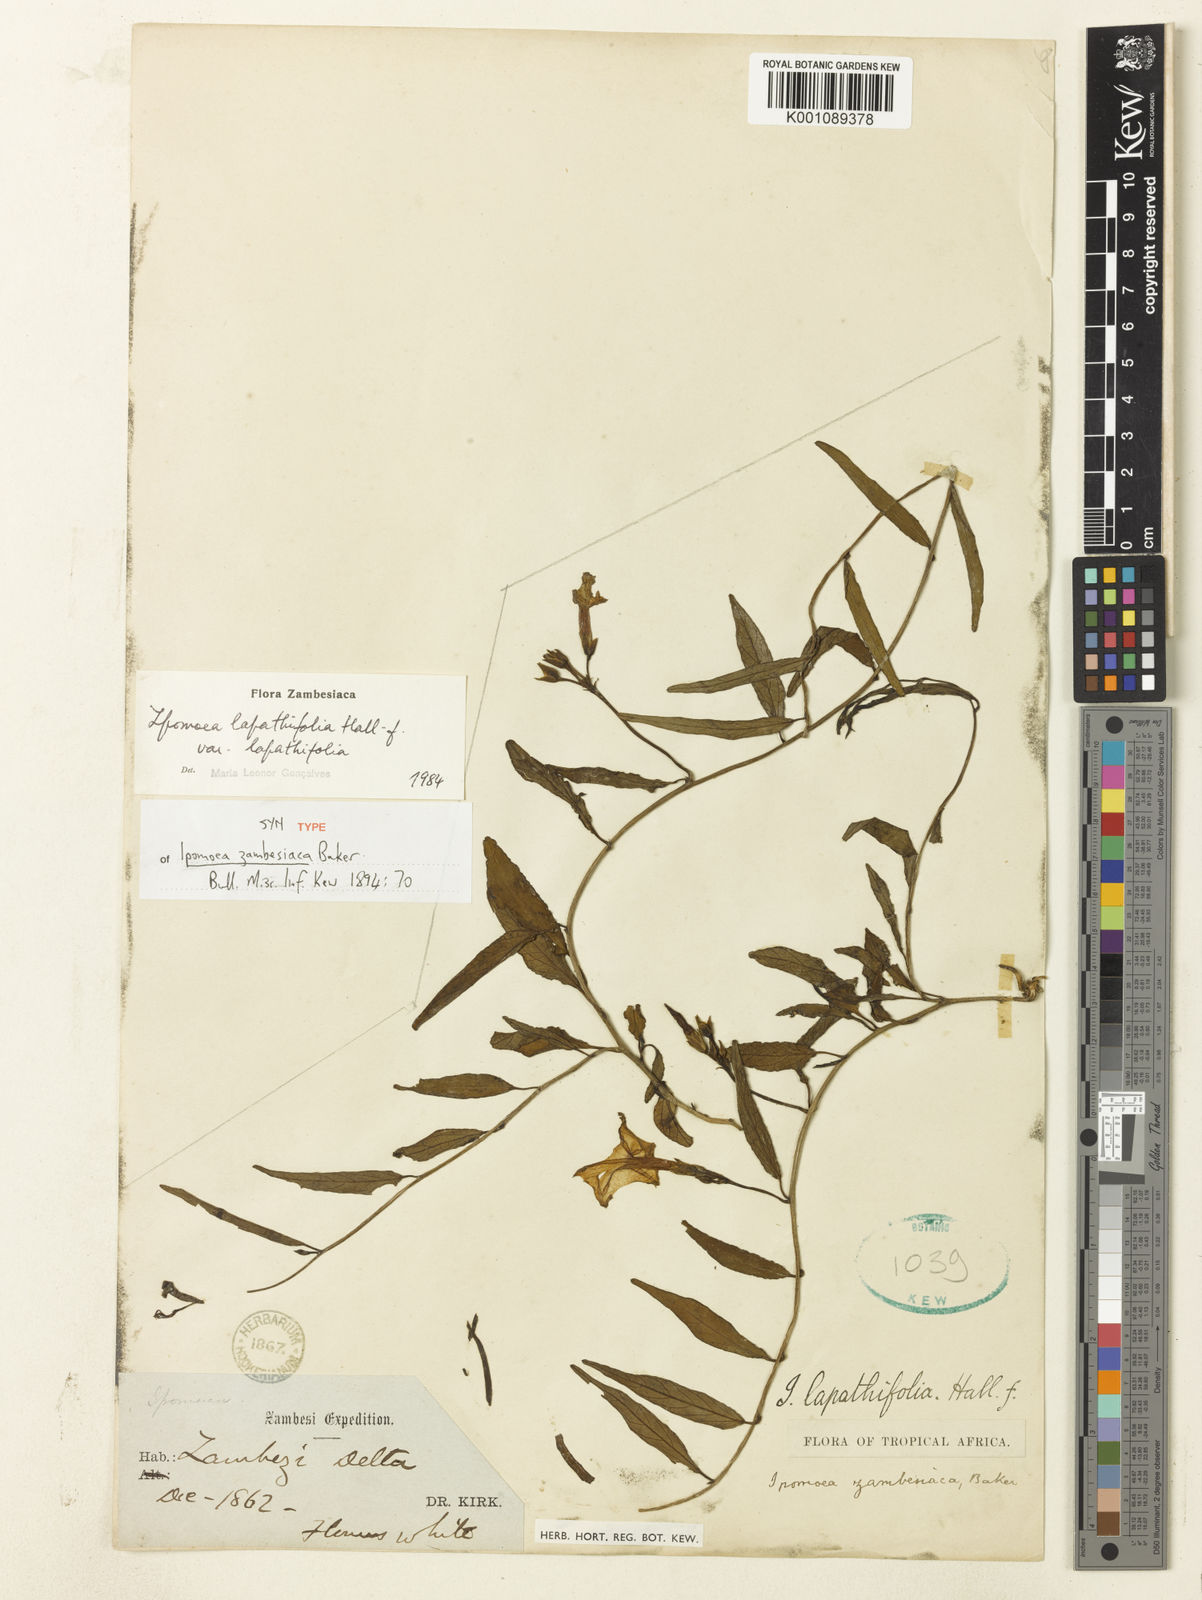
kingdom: Plantae
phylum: Tracheophyta
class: Magnoliopsida
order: Solanales
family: Convolvulaceae
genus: Ipomoea
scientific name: Ipomoea lapathifolia
